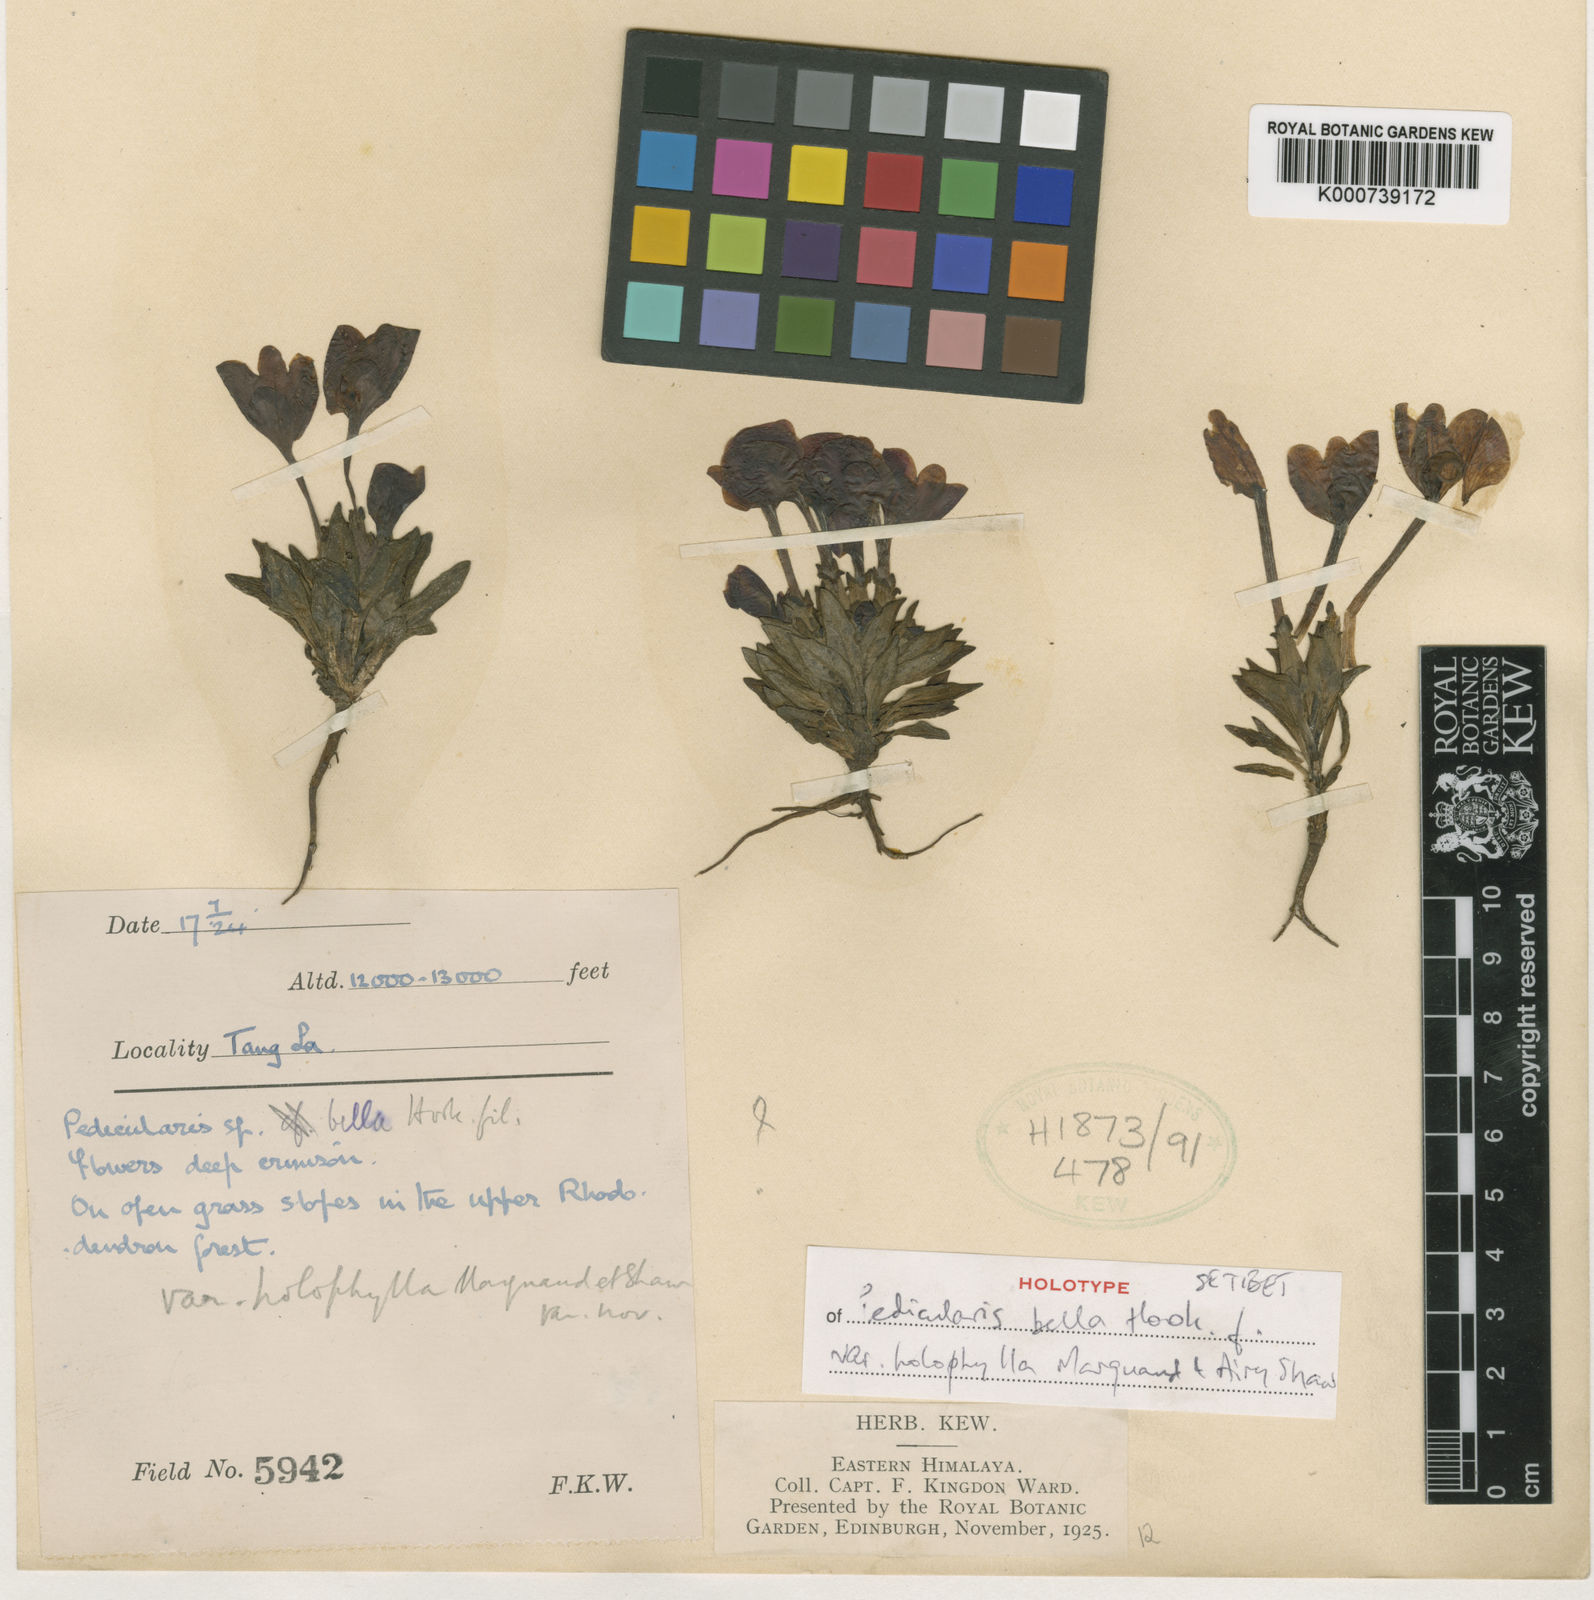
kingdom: Plantae
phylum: Tracheophyta
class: Magnoliopsida
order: Lamiales
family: Orobanchaceae
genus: Pedicularis
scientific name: Pedicularis
